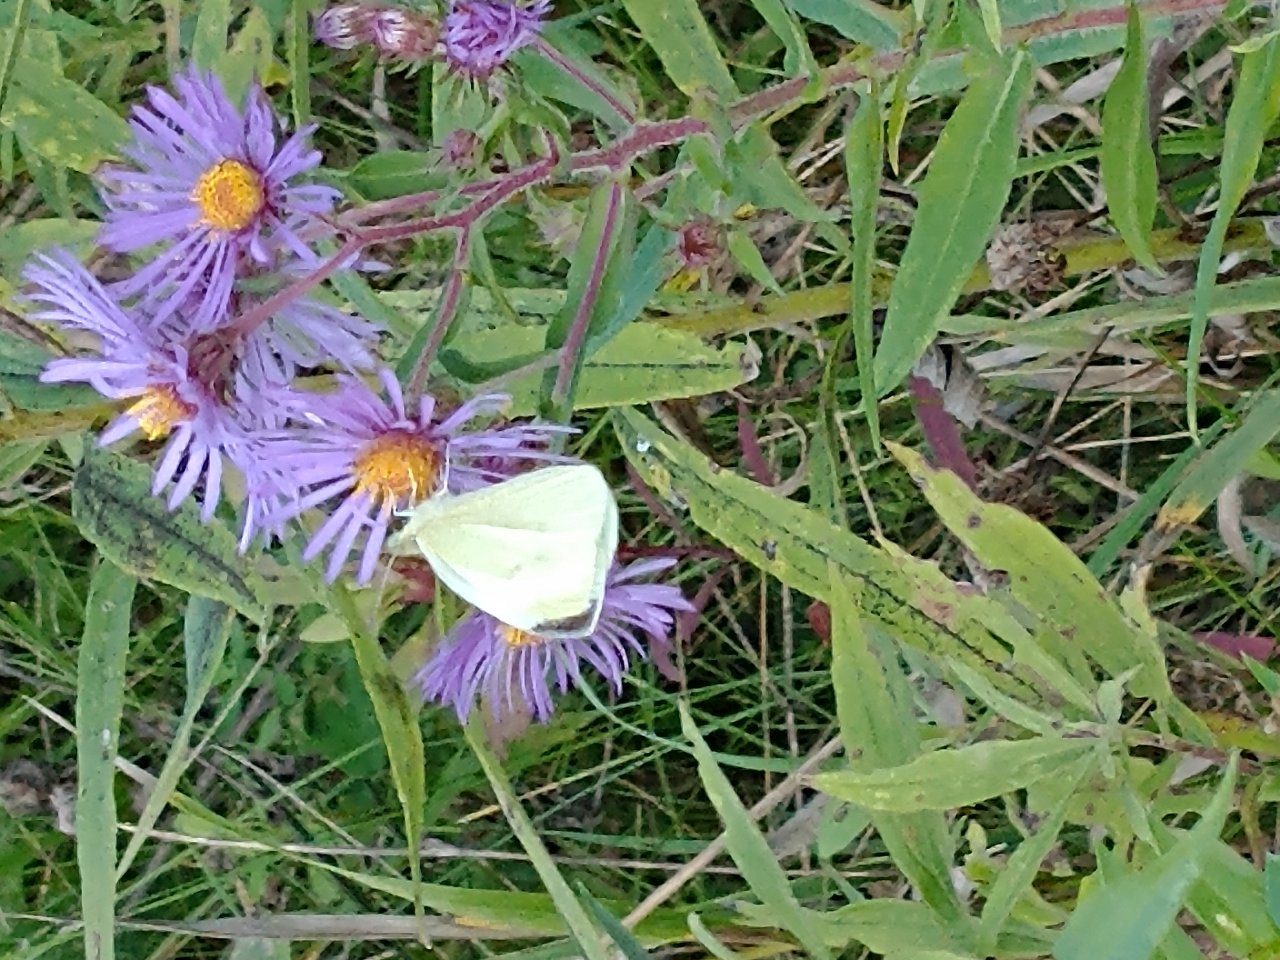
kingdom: Animalia
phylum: Arthropoda
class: Insecta
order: Lepidoptera
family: Pieridae
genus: Pieris
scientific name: Pieris rapae
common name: Cabbage White
